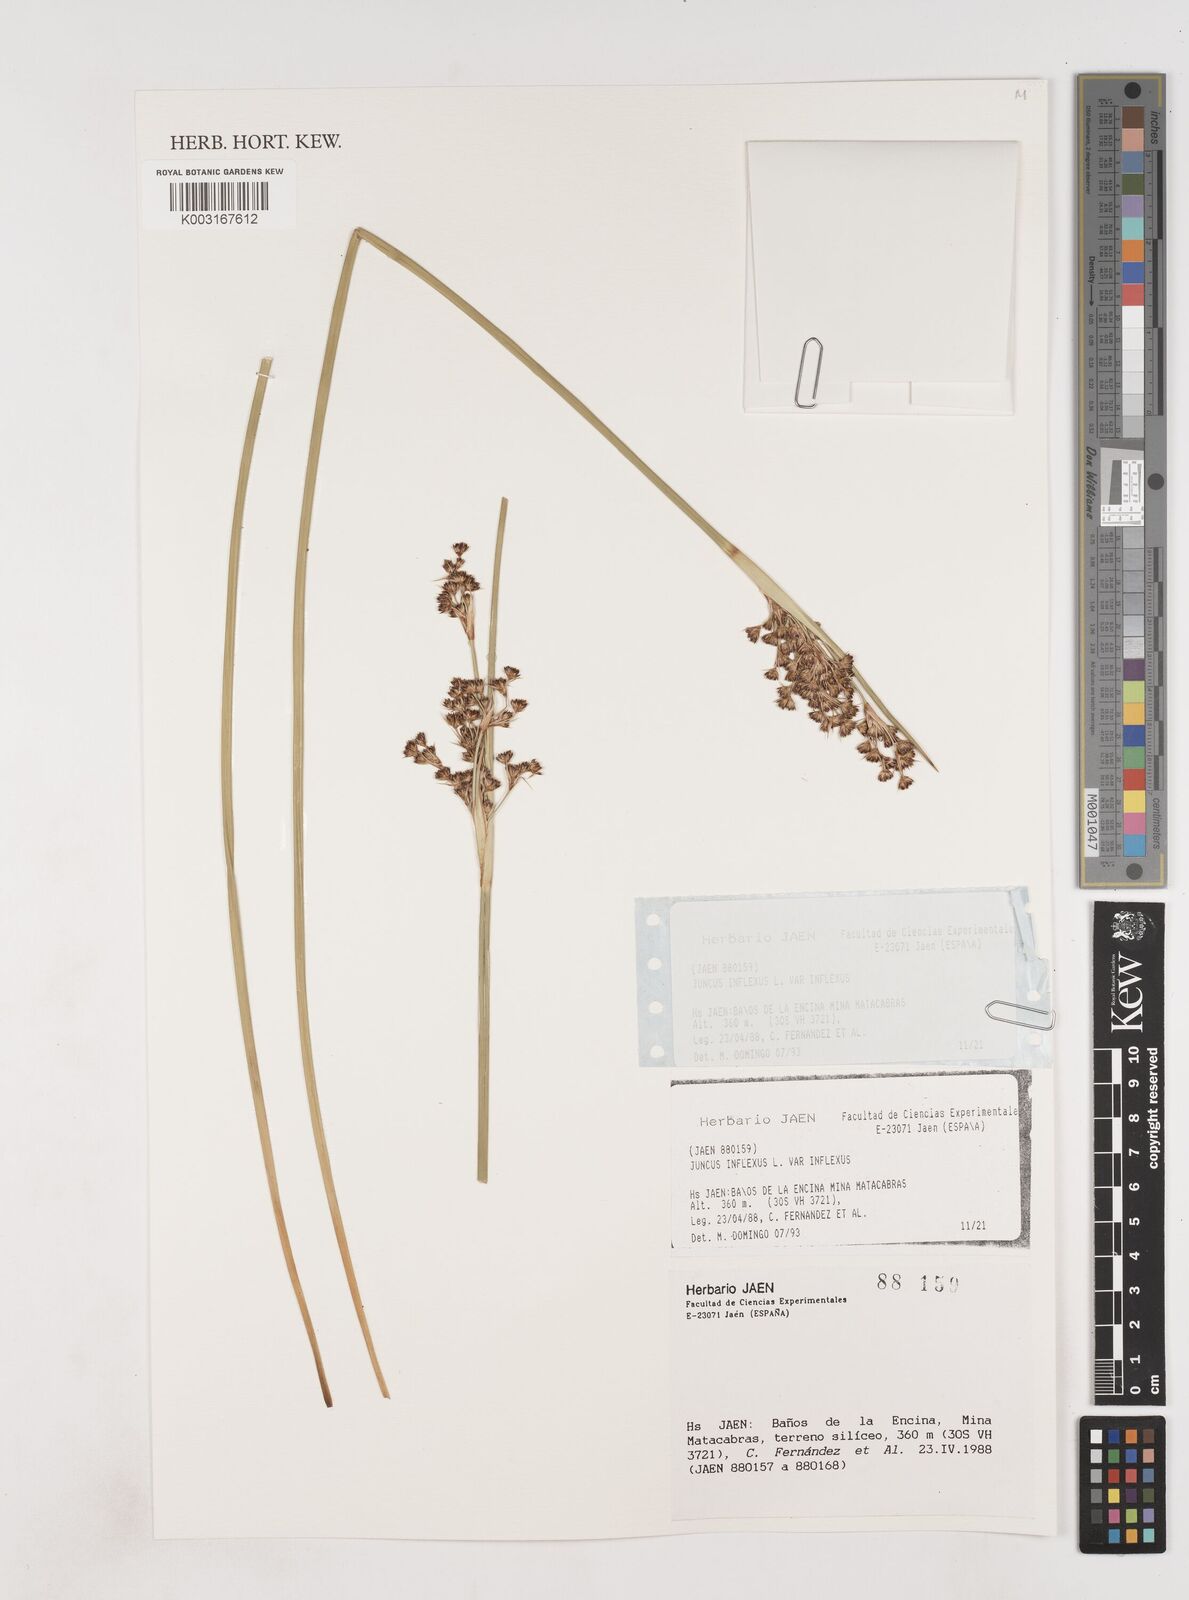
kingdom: Plantae
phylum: Tracheophyta
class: Liliopsida
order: Poales
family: Juncaceae
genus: Juncus
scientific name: Juncus inflexus
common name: Hard rush
